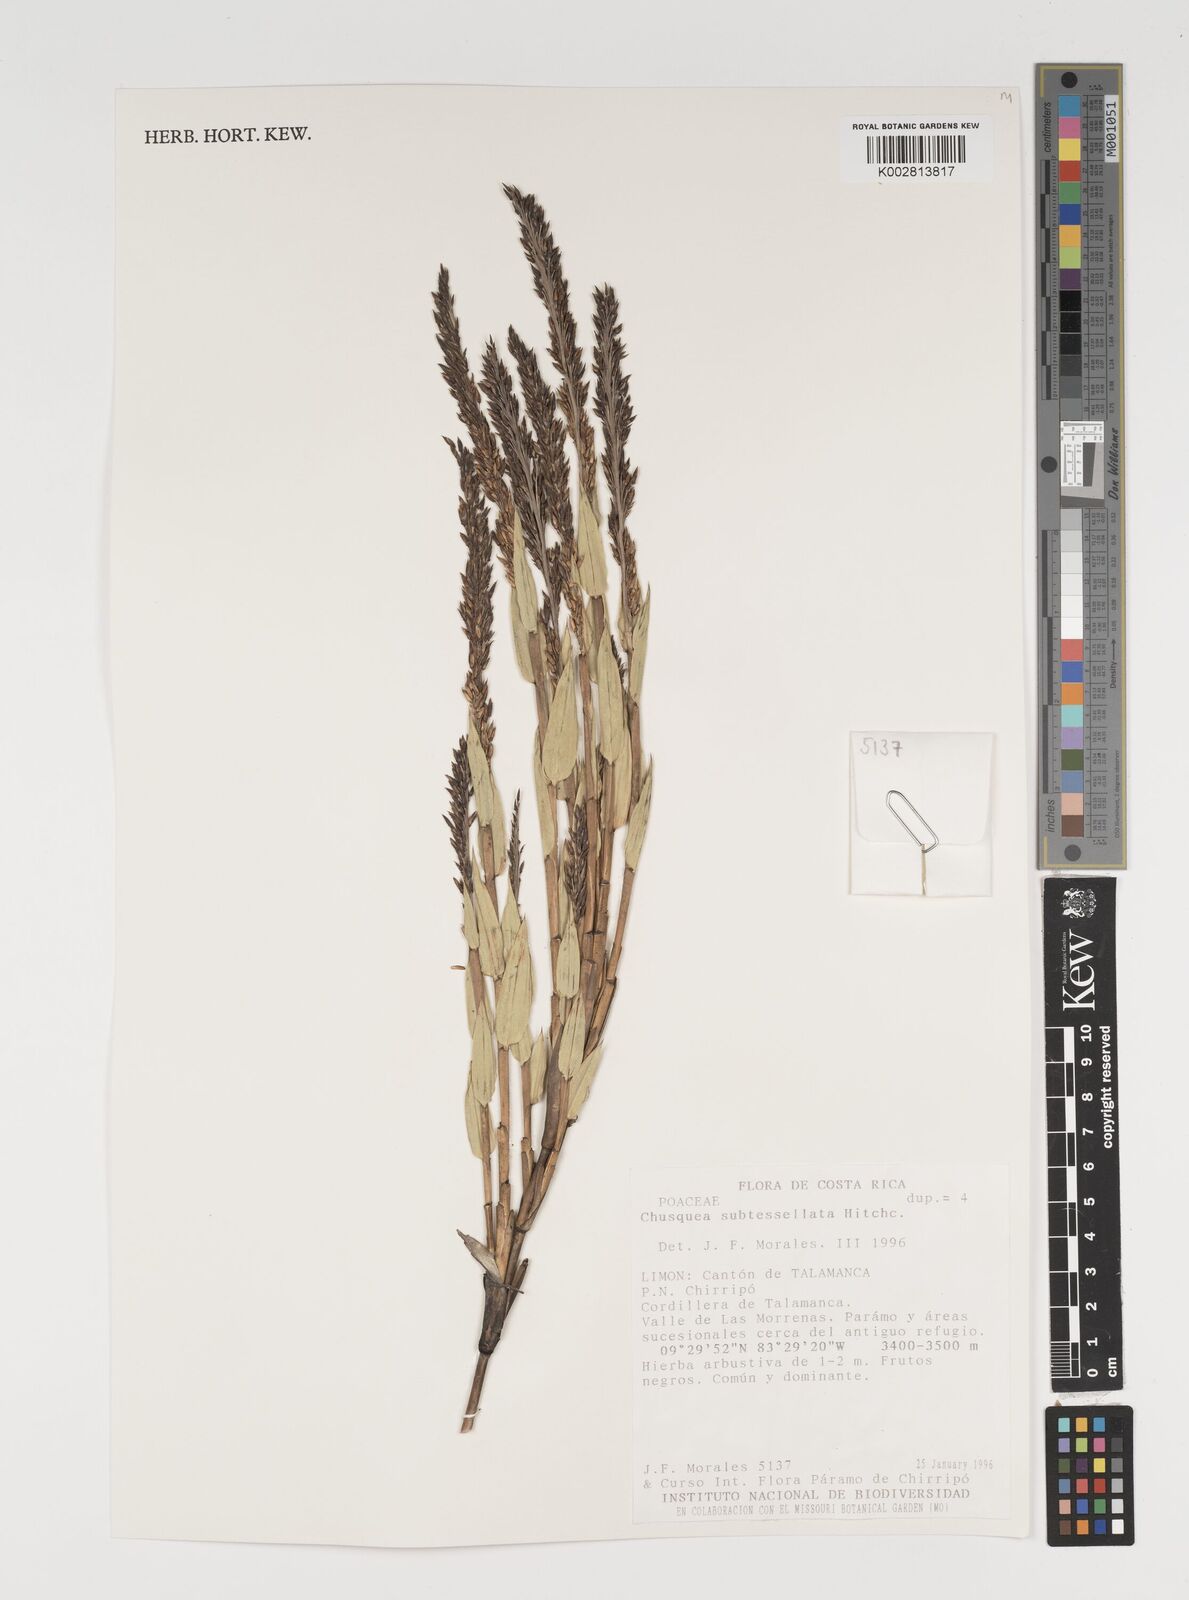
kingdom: Plantae
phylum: Tracheophyta
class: Liliopsida
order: Poales
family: Poaceae
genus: Chusquea
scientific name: Chusquea subtessellata
